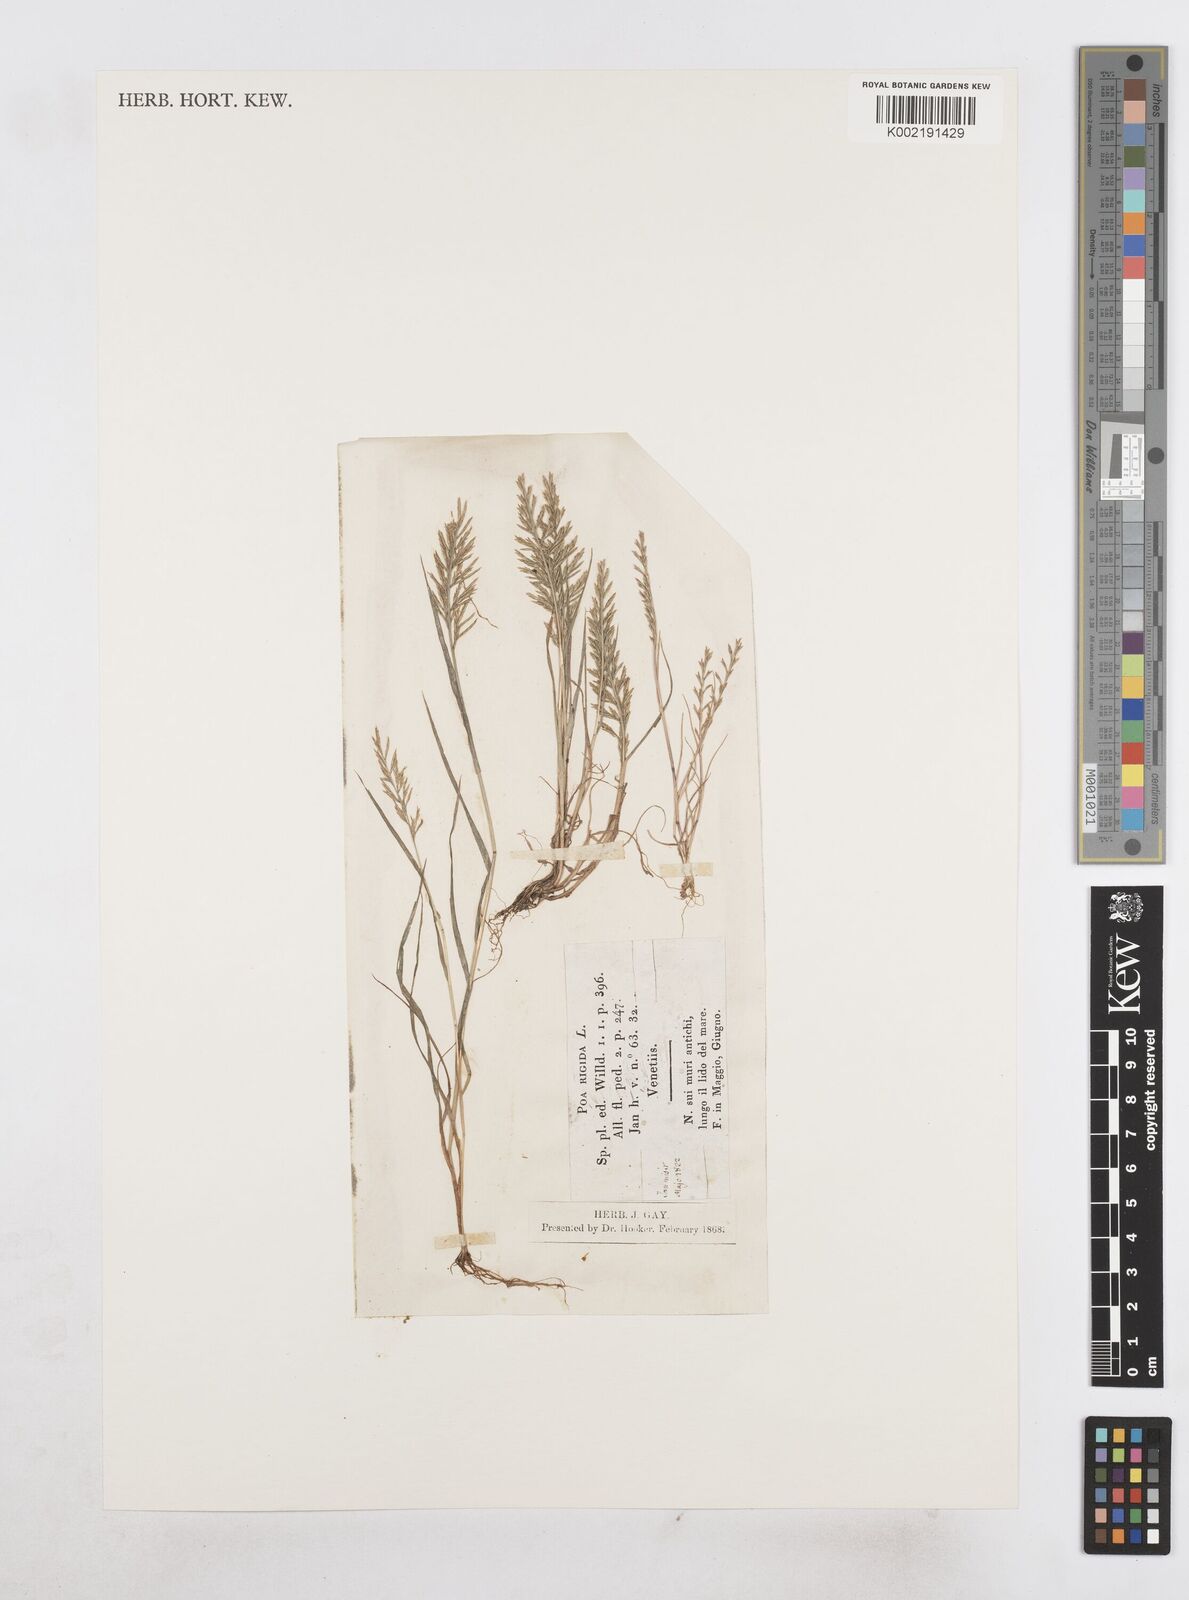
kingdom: Plantae
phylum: Tracheophyta
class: Liliopsida
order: Poales
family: Poaceae
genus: Catapodium
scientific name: Catapodium rigidum
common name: Fern-grass
